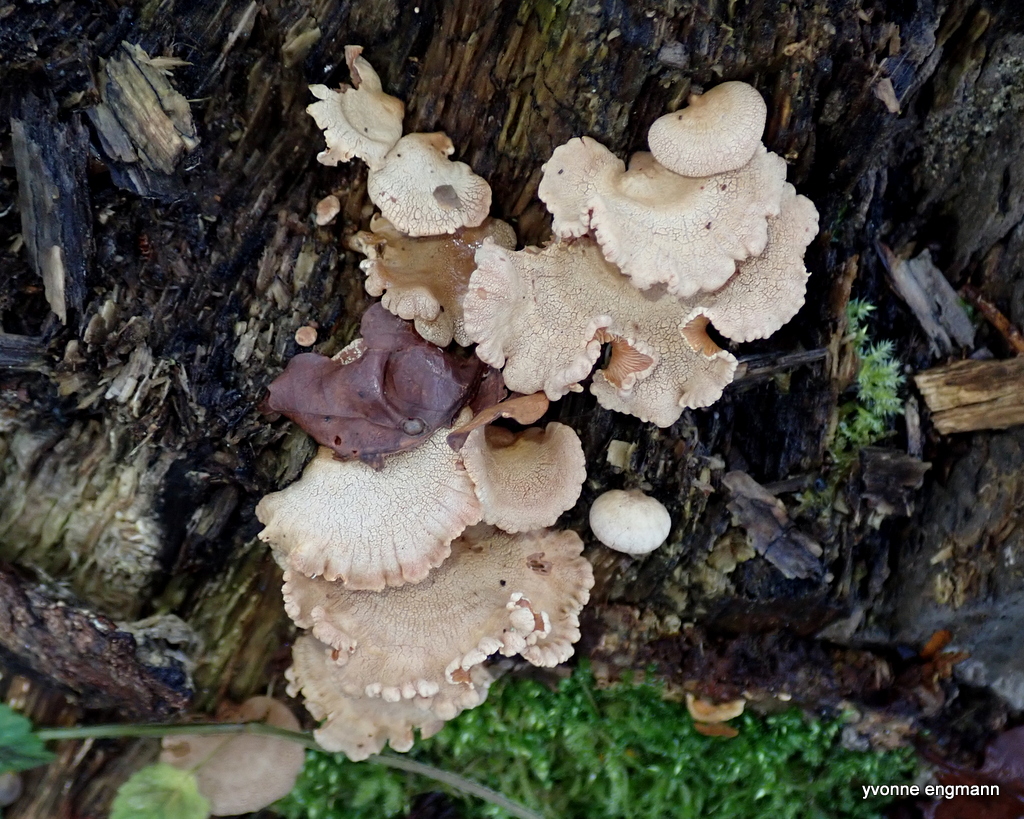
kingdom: Fungi
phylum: Basidiomycota
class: Agaricomycetes
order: Agaricales
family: Mycenaceae
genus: Panellus
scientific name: Panellus stipticus
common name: kliddet epaulethat
